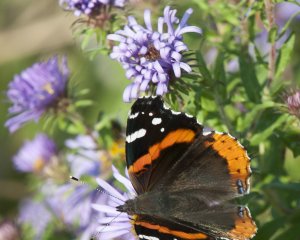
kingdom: Animalia
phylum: Arthropoda
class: Insecta
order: Lepidoptera
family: Nymphalidae
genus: Vanessa
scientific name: Vanessa atalanta
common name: Red Admiral
